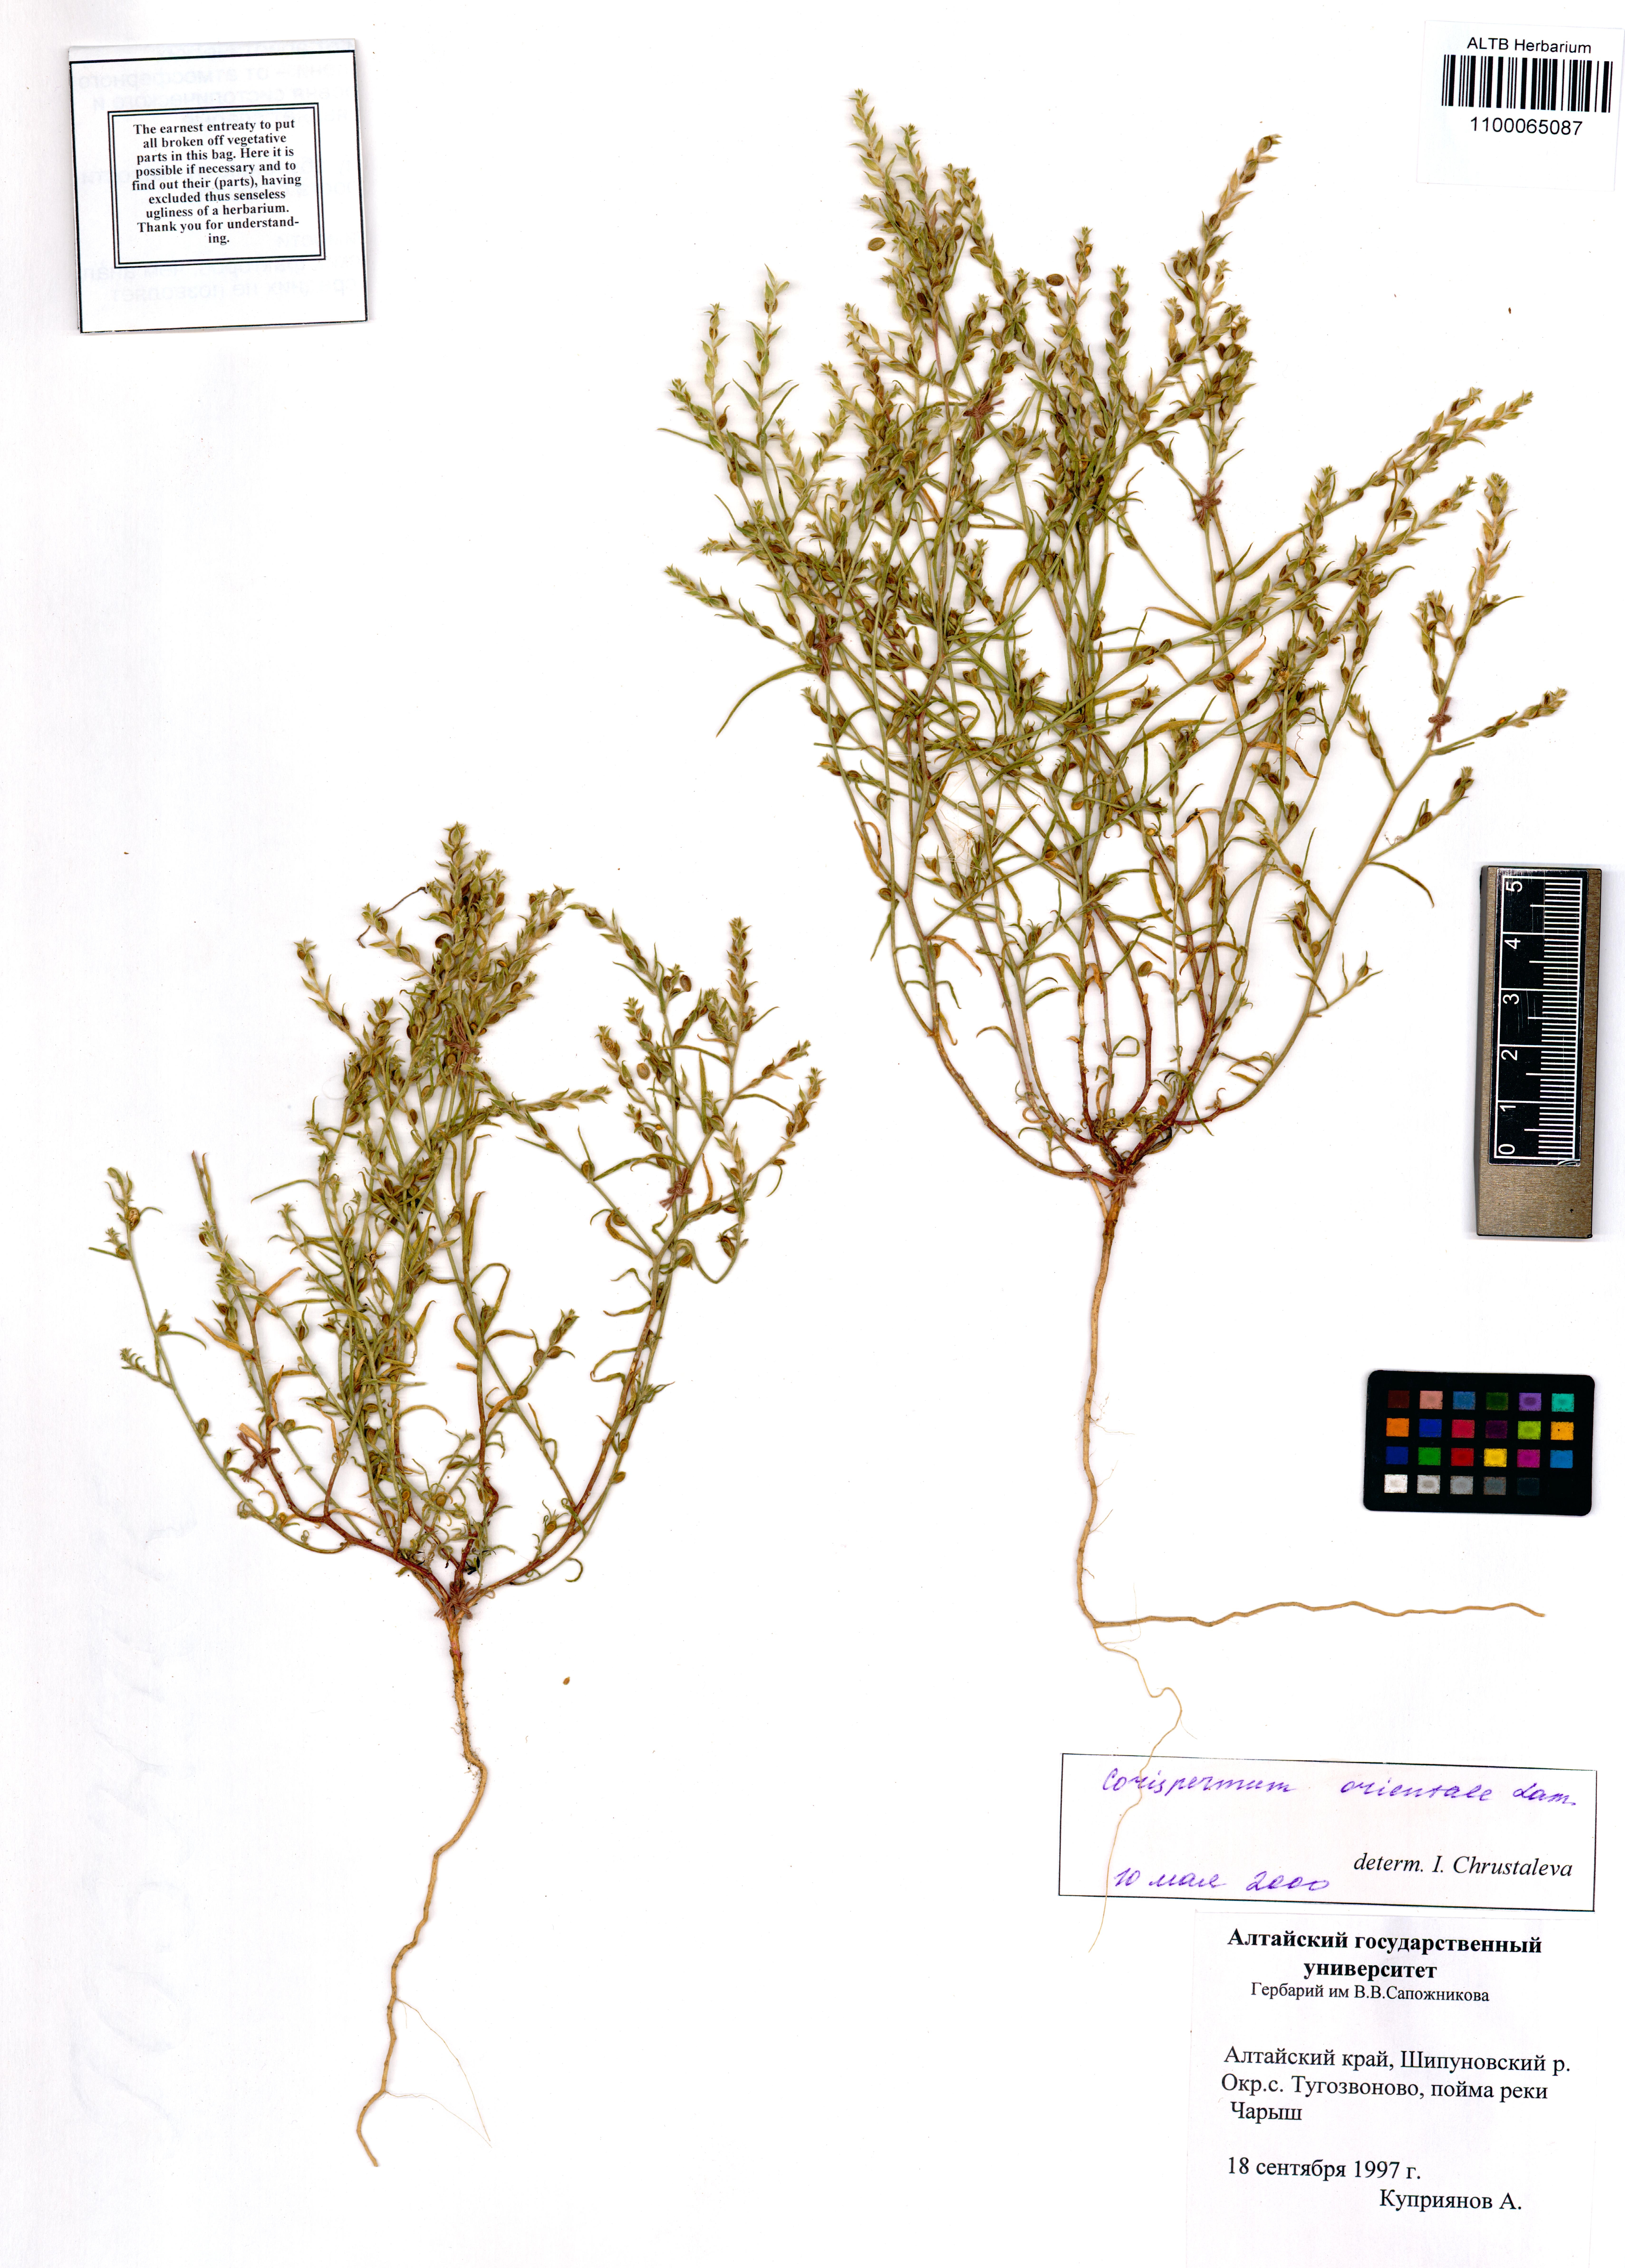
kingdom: Plantae
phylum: Tracheophyta
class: Magnoliopsida
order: Caryophyllales
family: Amaranthaceae
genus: Corispermum
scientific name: Corispermum aralocaspicum
